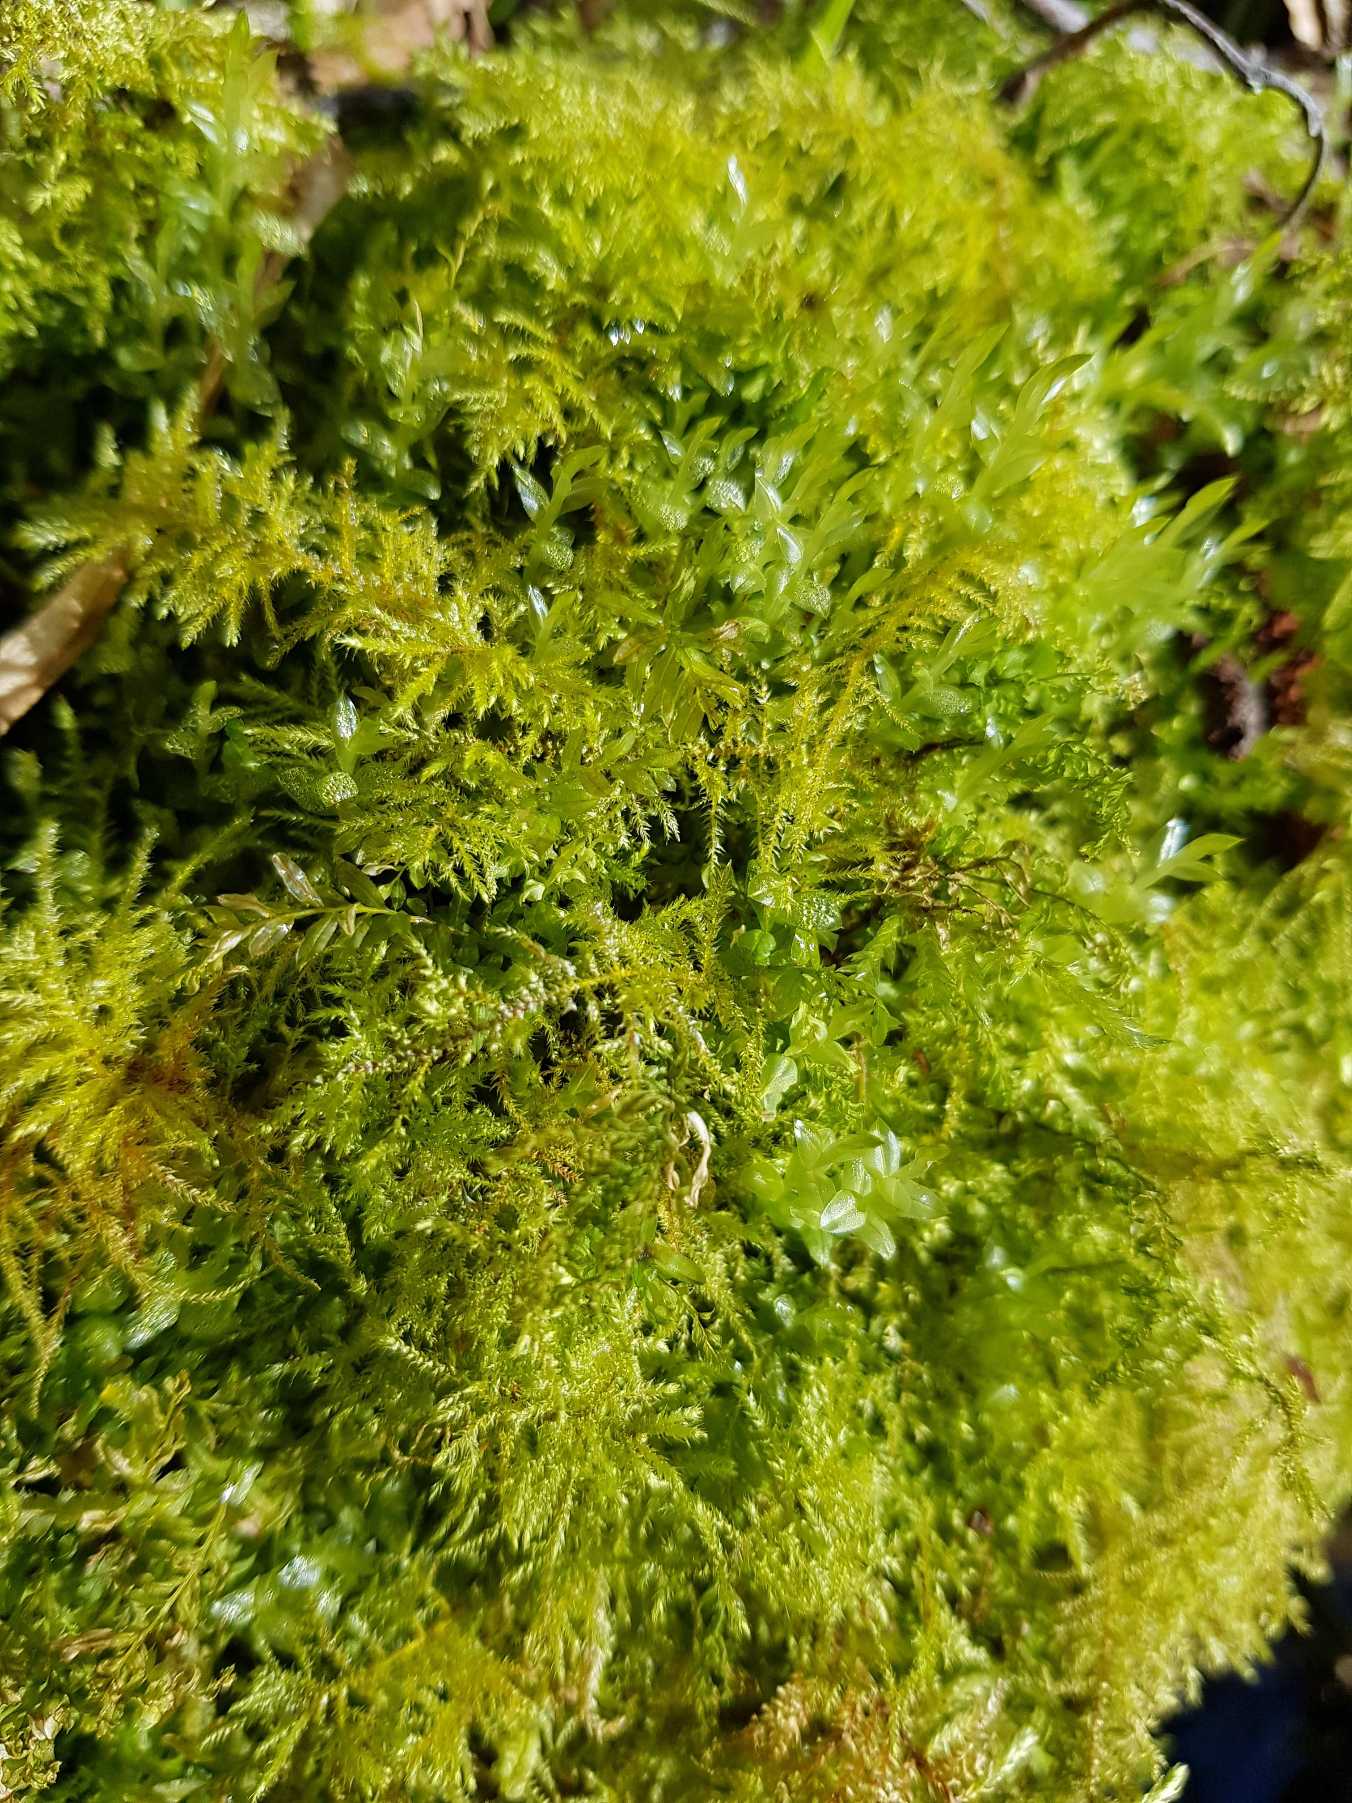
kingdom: Plantae
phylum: Bryophyta
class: Bryopsida
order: Hypnales
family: Brachytheciaceae
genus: Kindbergia
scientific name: Kindbergia praelonga
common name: Forskelligbladet vortetand
